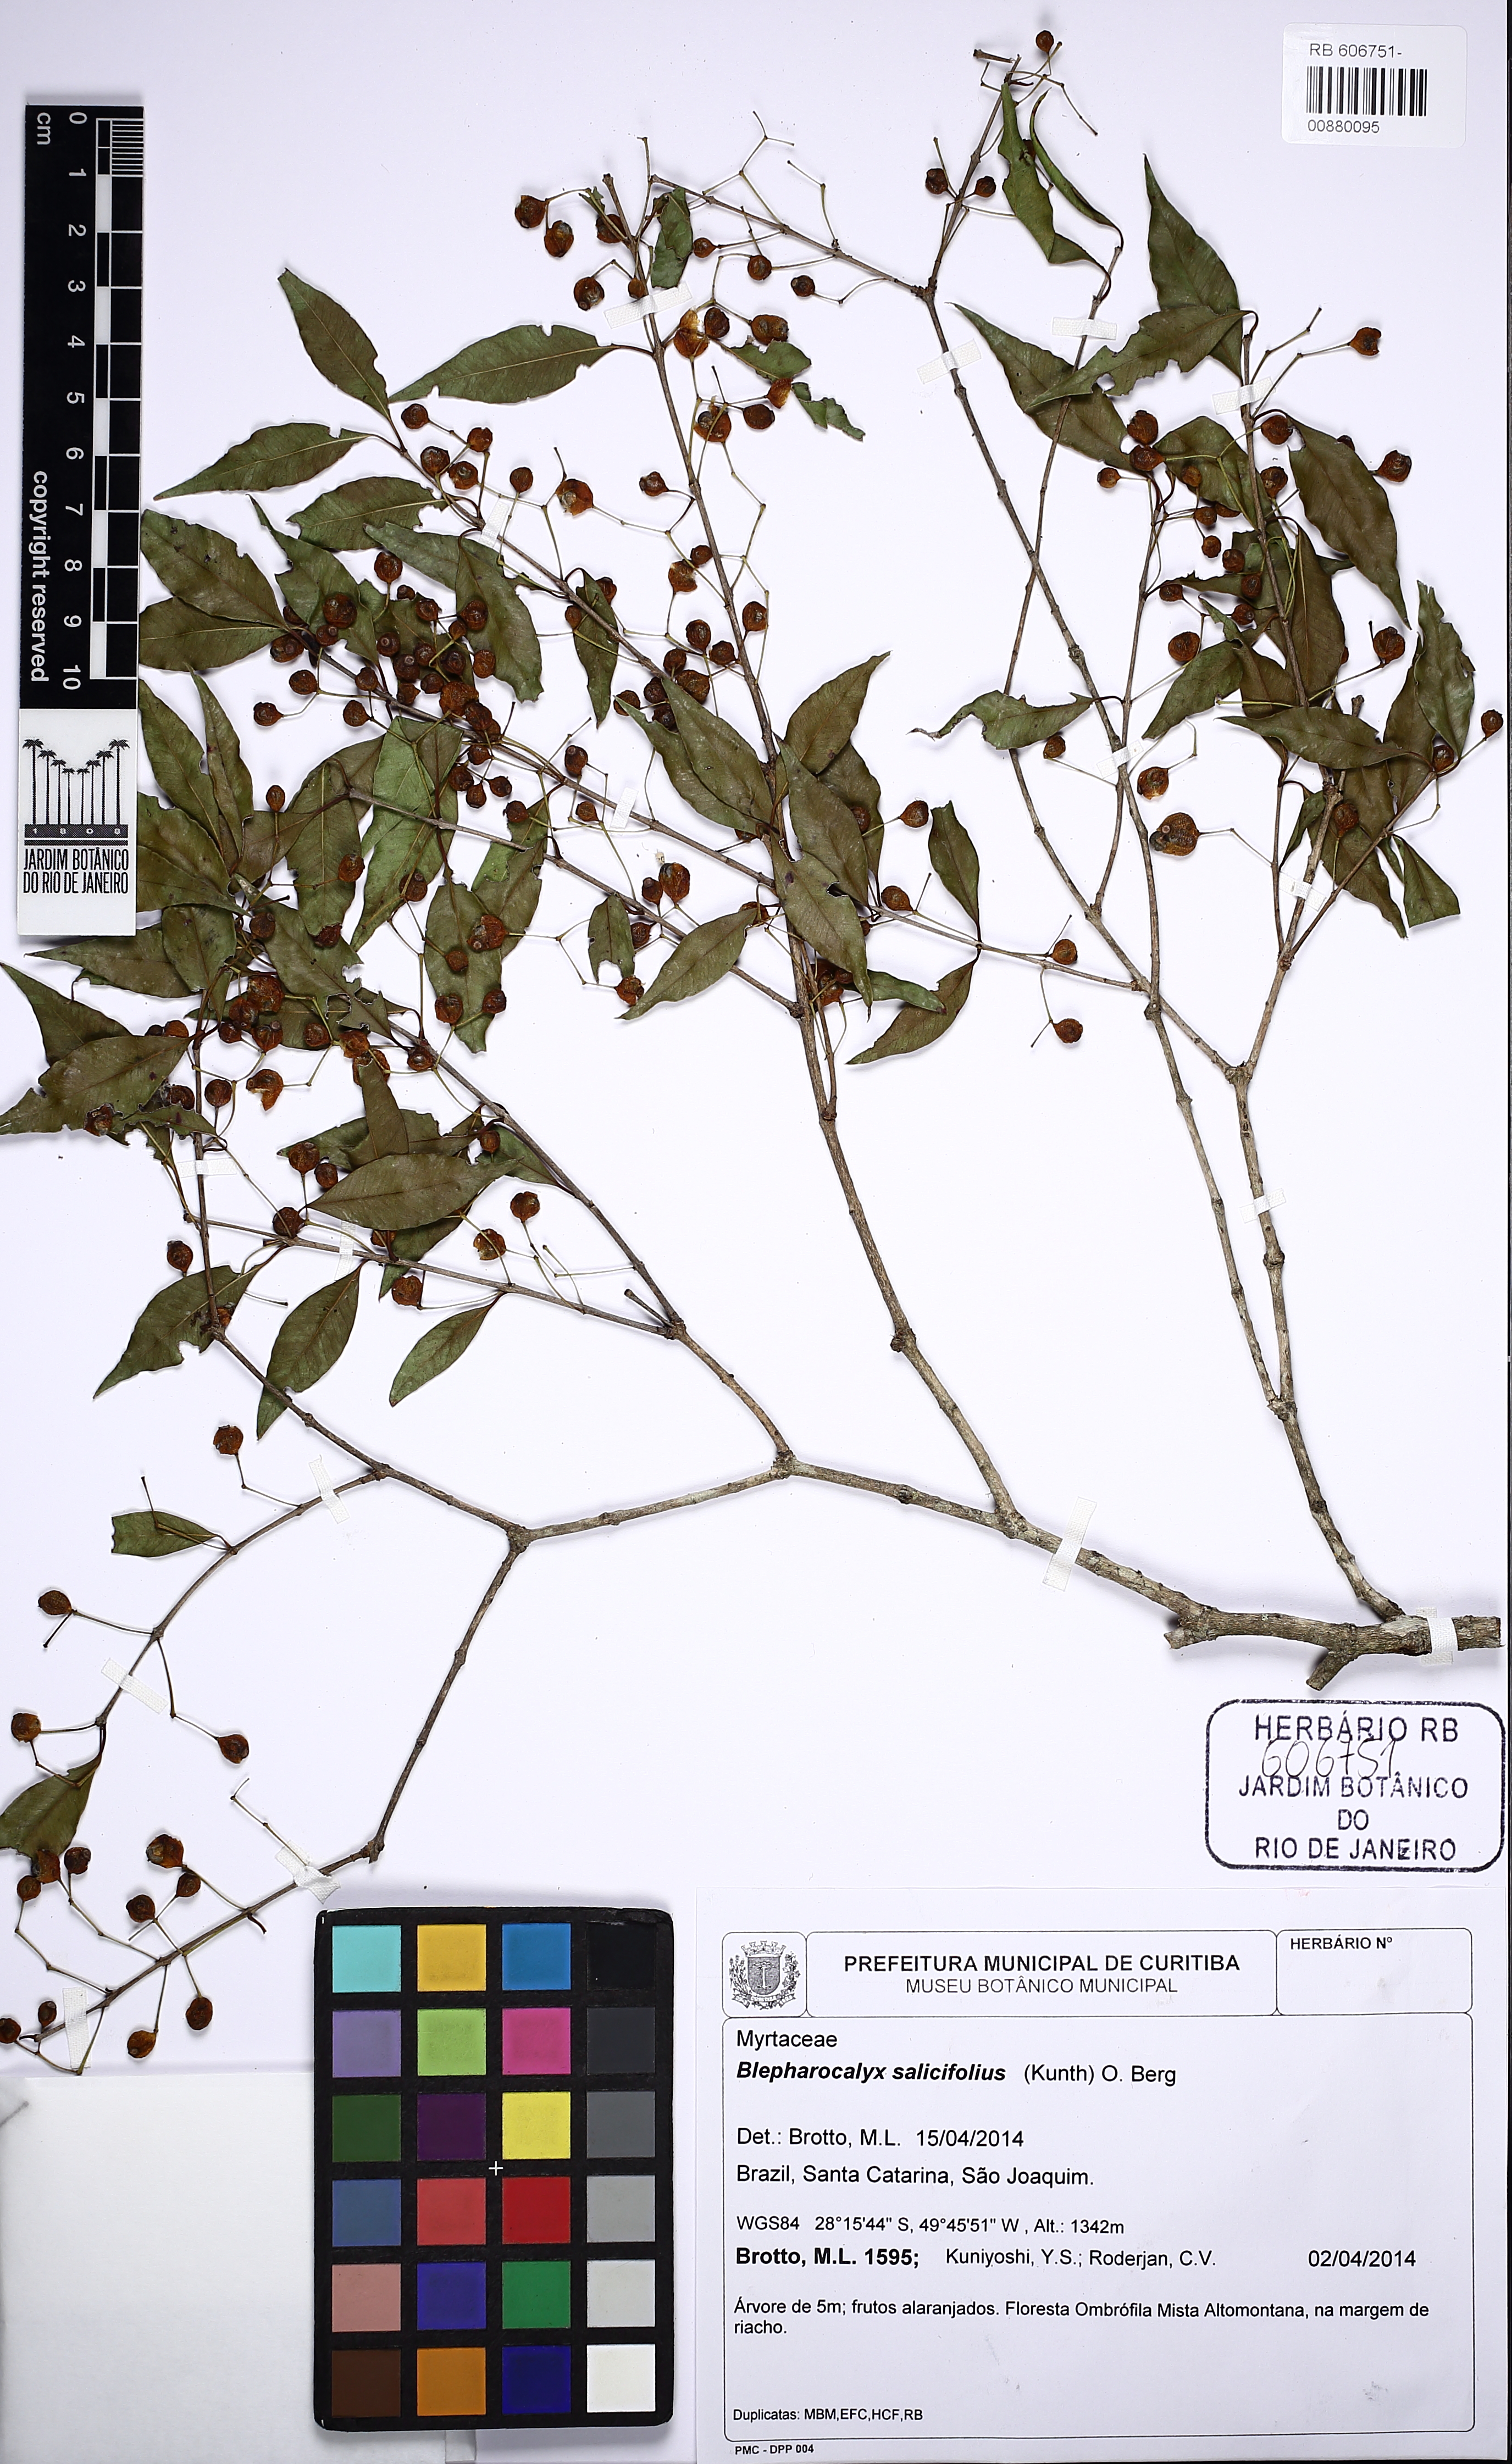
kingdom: Plantae
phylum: Tracheophyta
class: Magnoliopsida
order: Myrtales
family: Myrtaceae
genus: Blepharocalyx
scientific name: Blepharocalyx salicifolius
